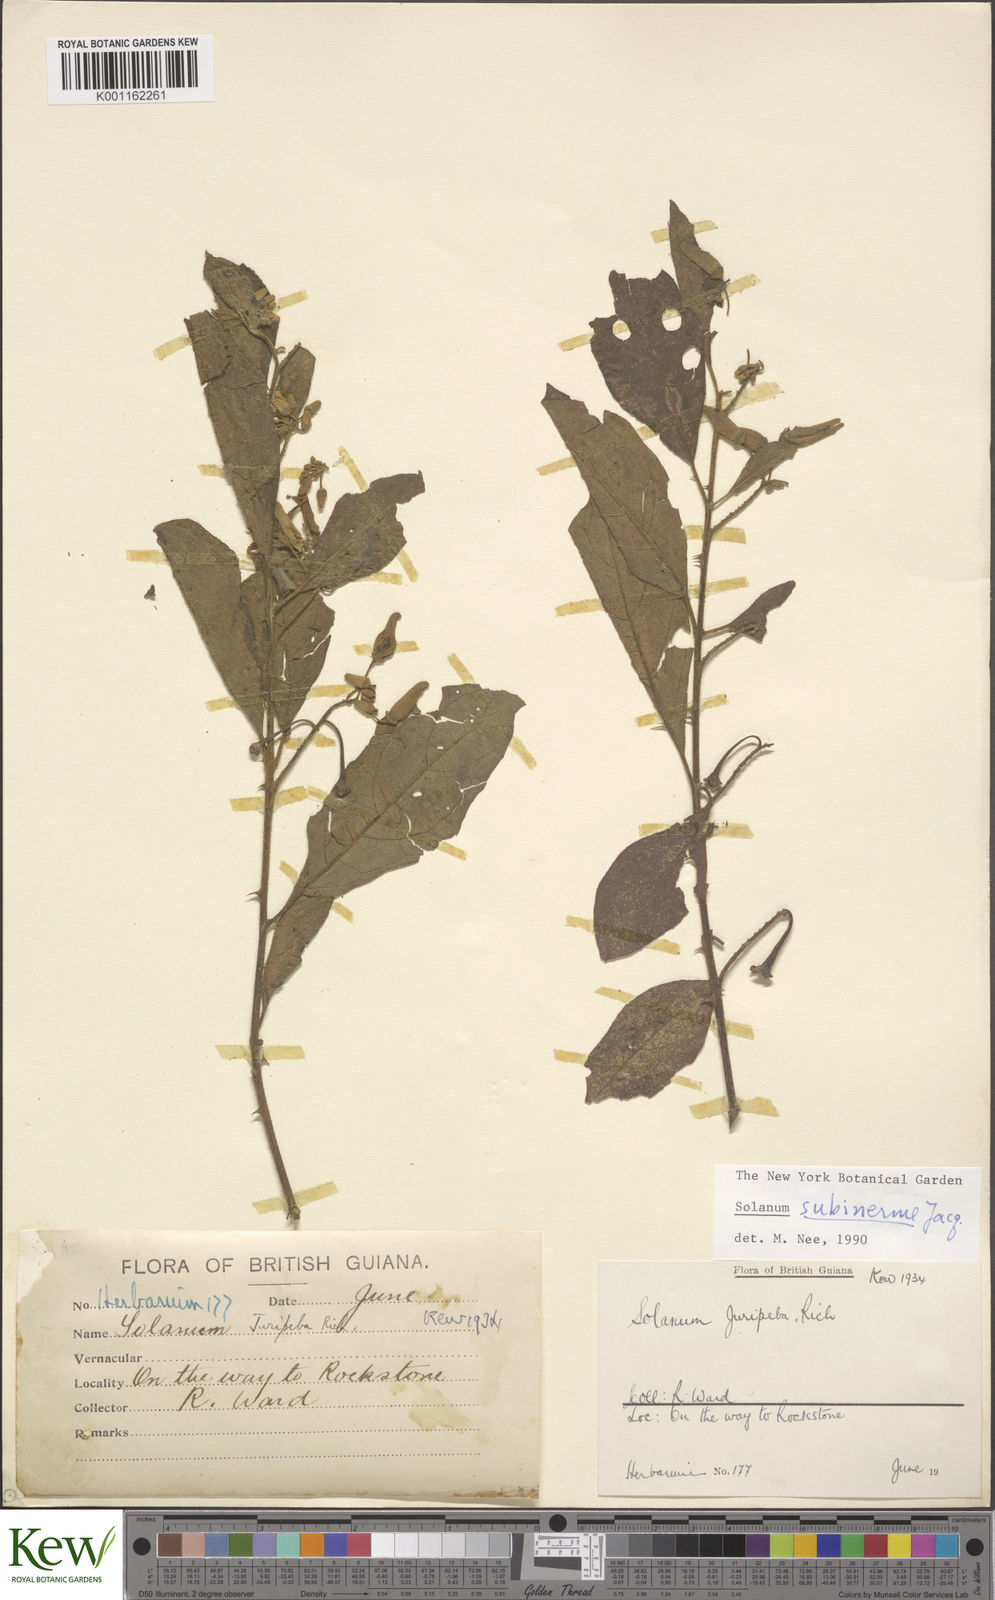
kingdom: Plantae
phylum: Tracheophyta
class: Magnoliopsida
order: Solanales
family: Solanaceae
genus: Solanum
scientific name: Solanum subinerme
